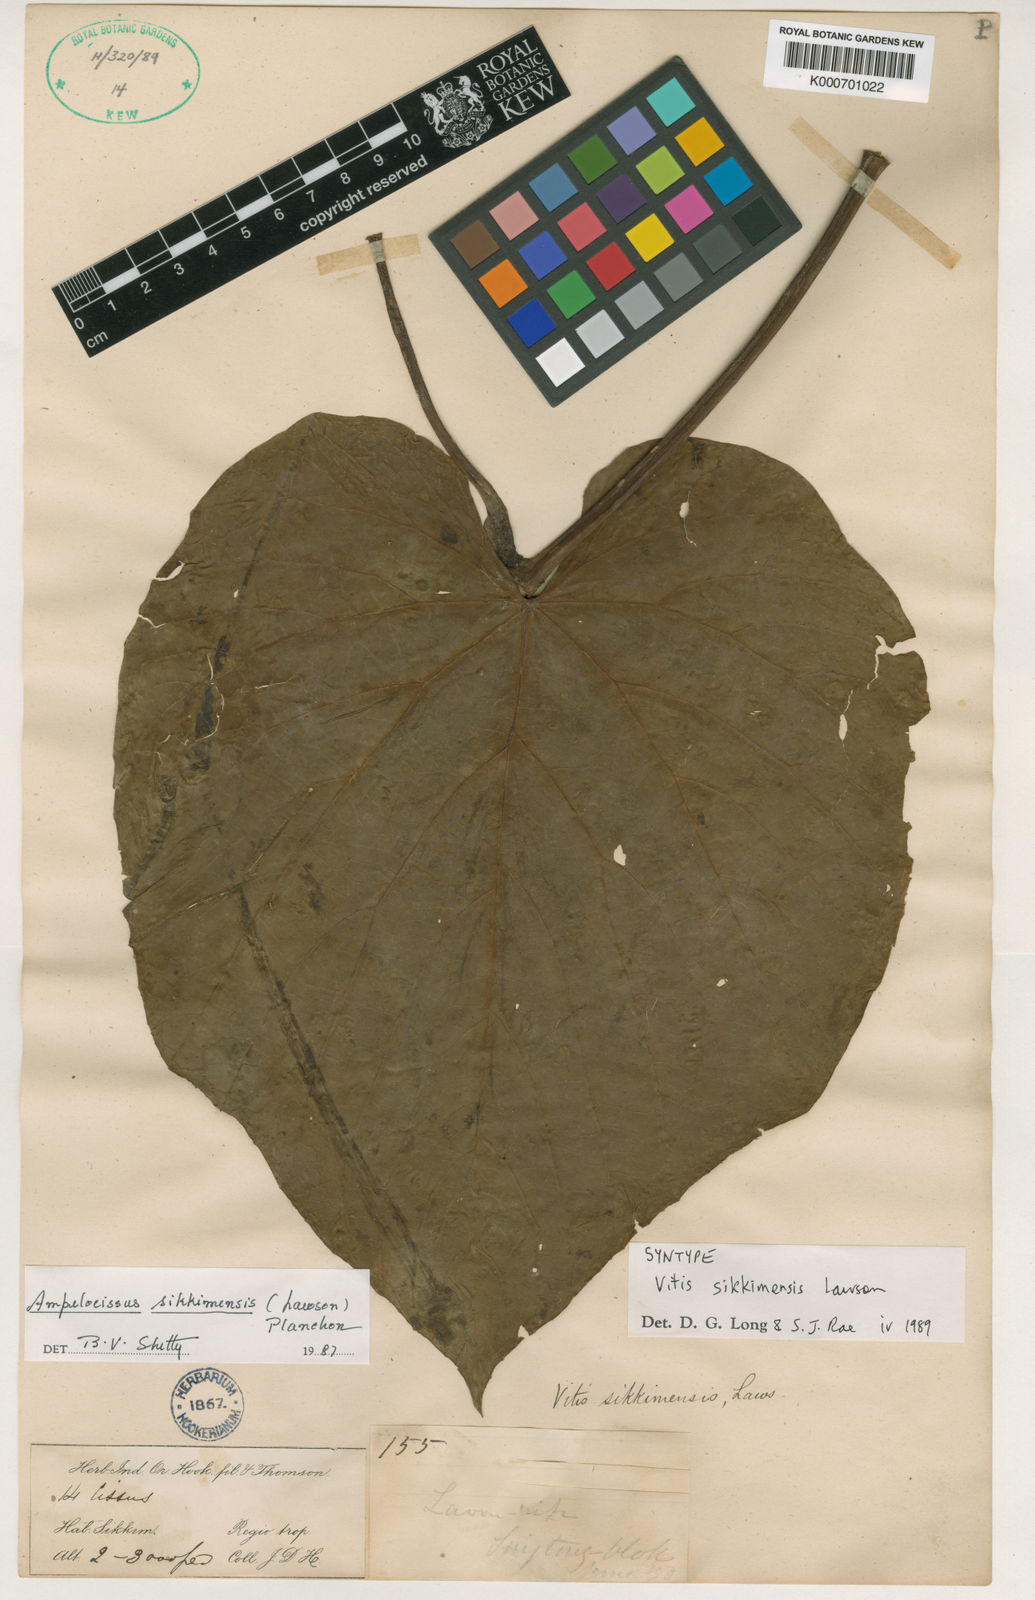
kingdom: Plantae
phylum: Tracheophyta
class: Magnoliopsida
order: Vitales
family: Vitaceae
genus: Ampelocissus
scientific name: Ampelocissus sikkimensis
